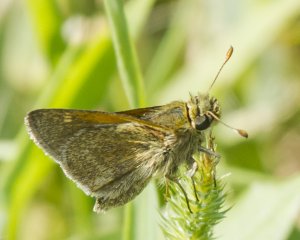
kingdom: Animalia
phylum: Arthropoda
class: Insecta
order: Lepidoptera
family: Hesperiidae
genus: Polites
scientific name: Polites themistocles
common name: Tawny-edged Skipper
